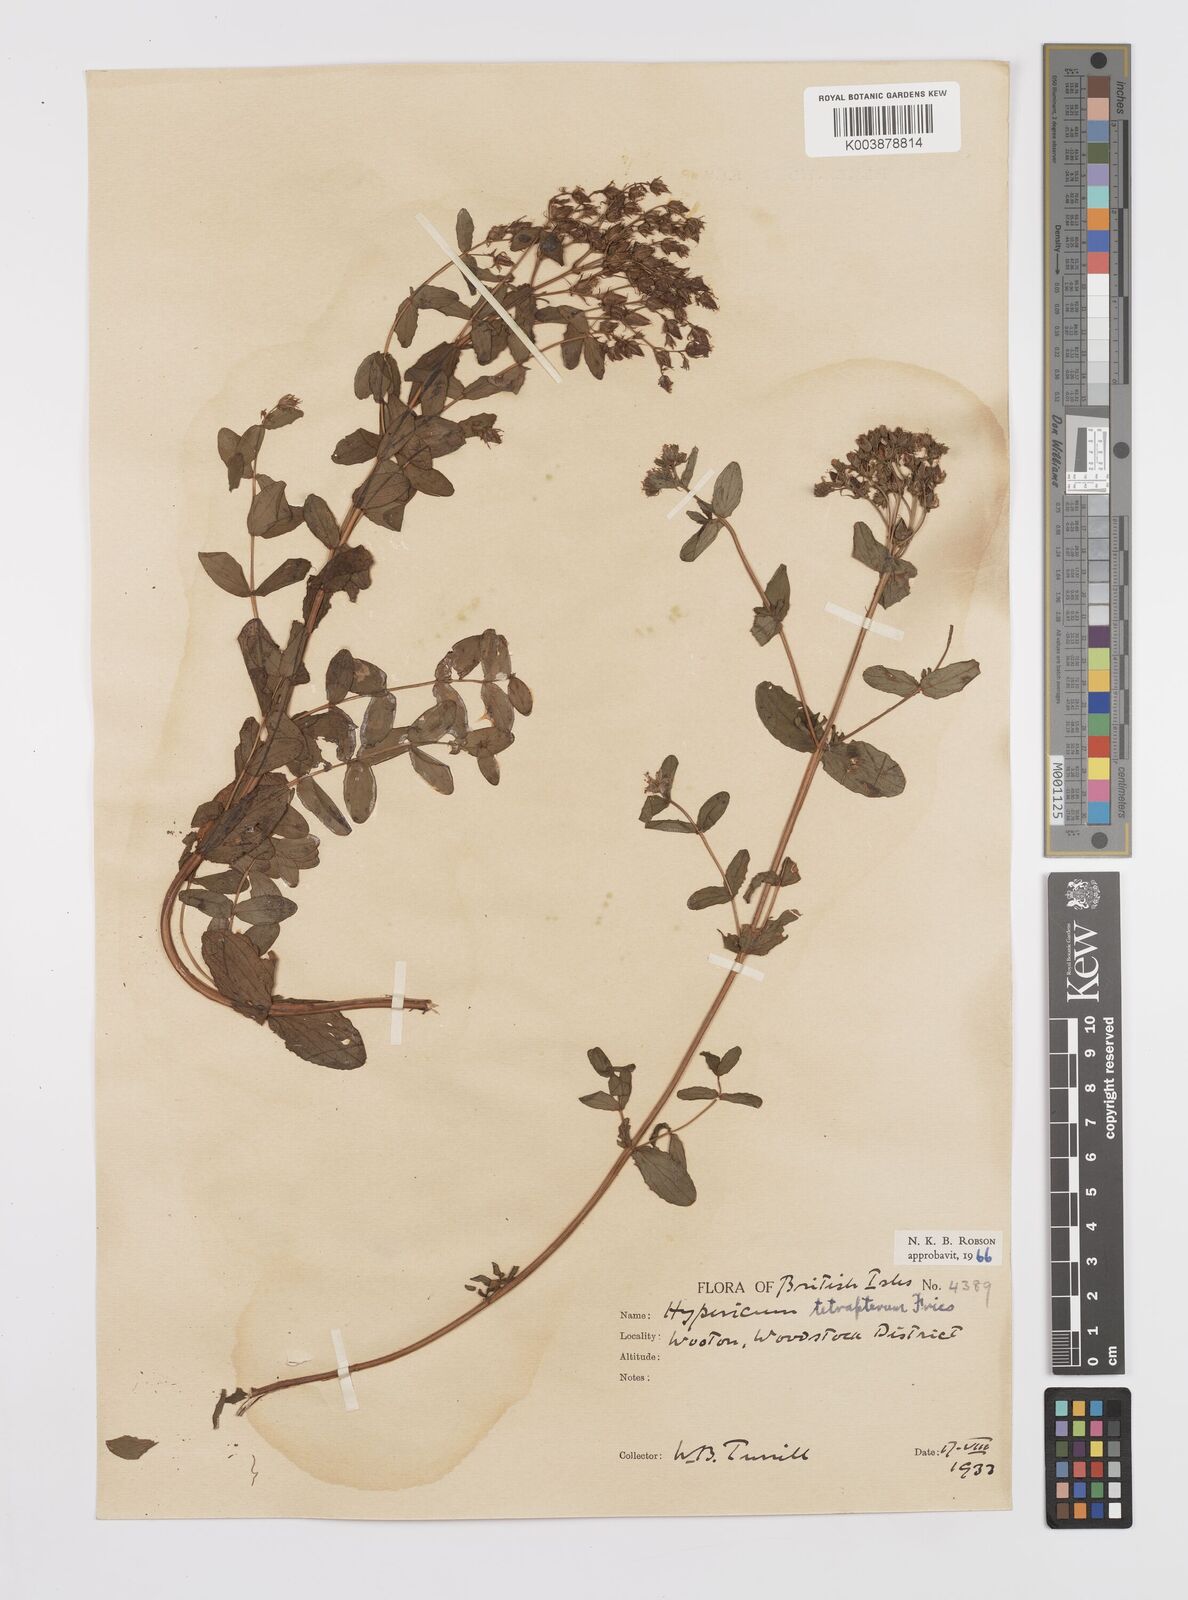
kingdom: Plantae
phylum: Tracheophyta
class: Magnoliopsida
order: Malpighiales
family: Hypericaceae
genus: Hypericum
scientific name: Hypericum tetrapterum
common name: Square-stalked st. john's-wort
